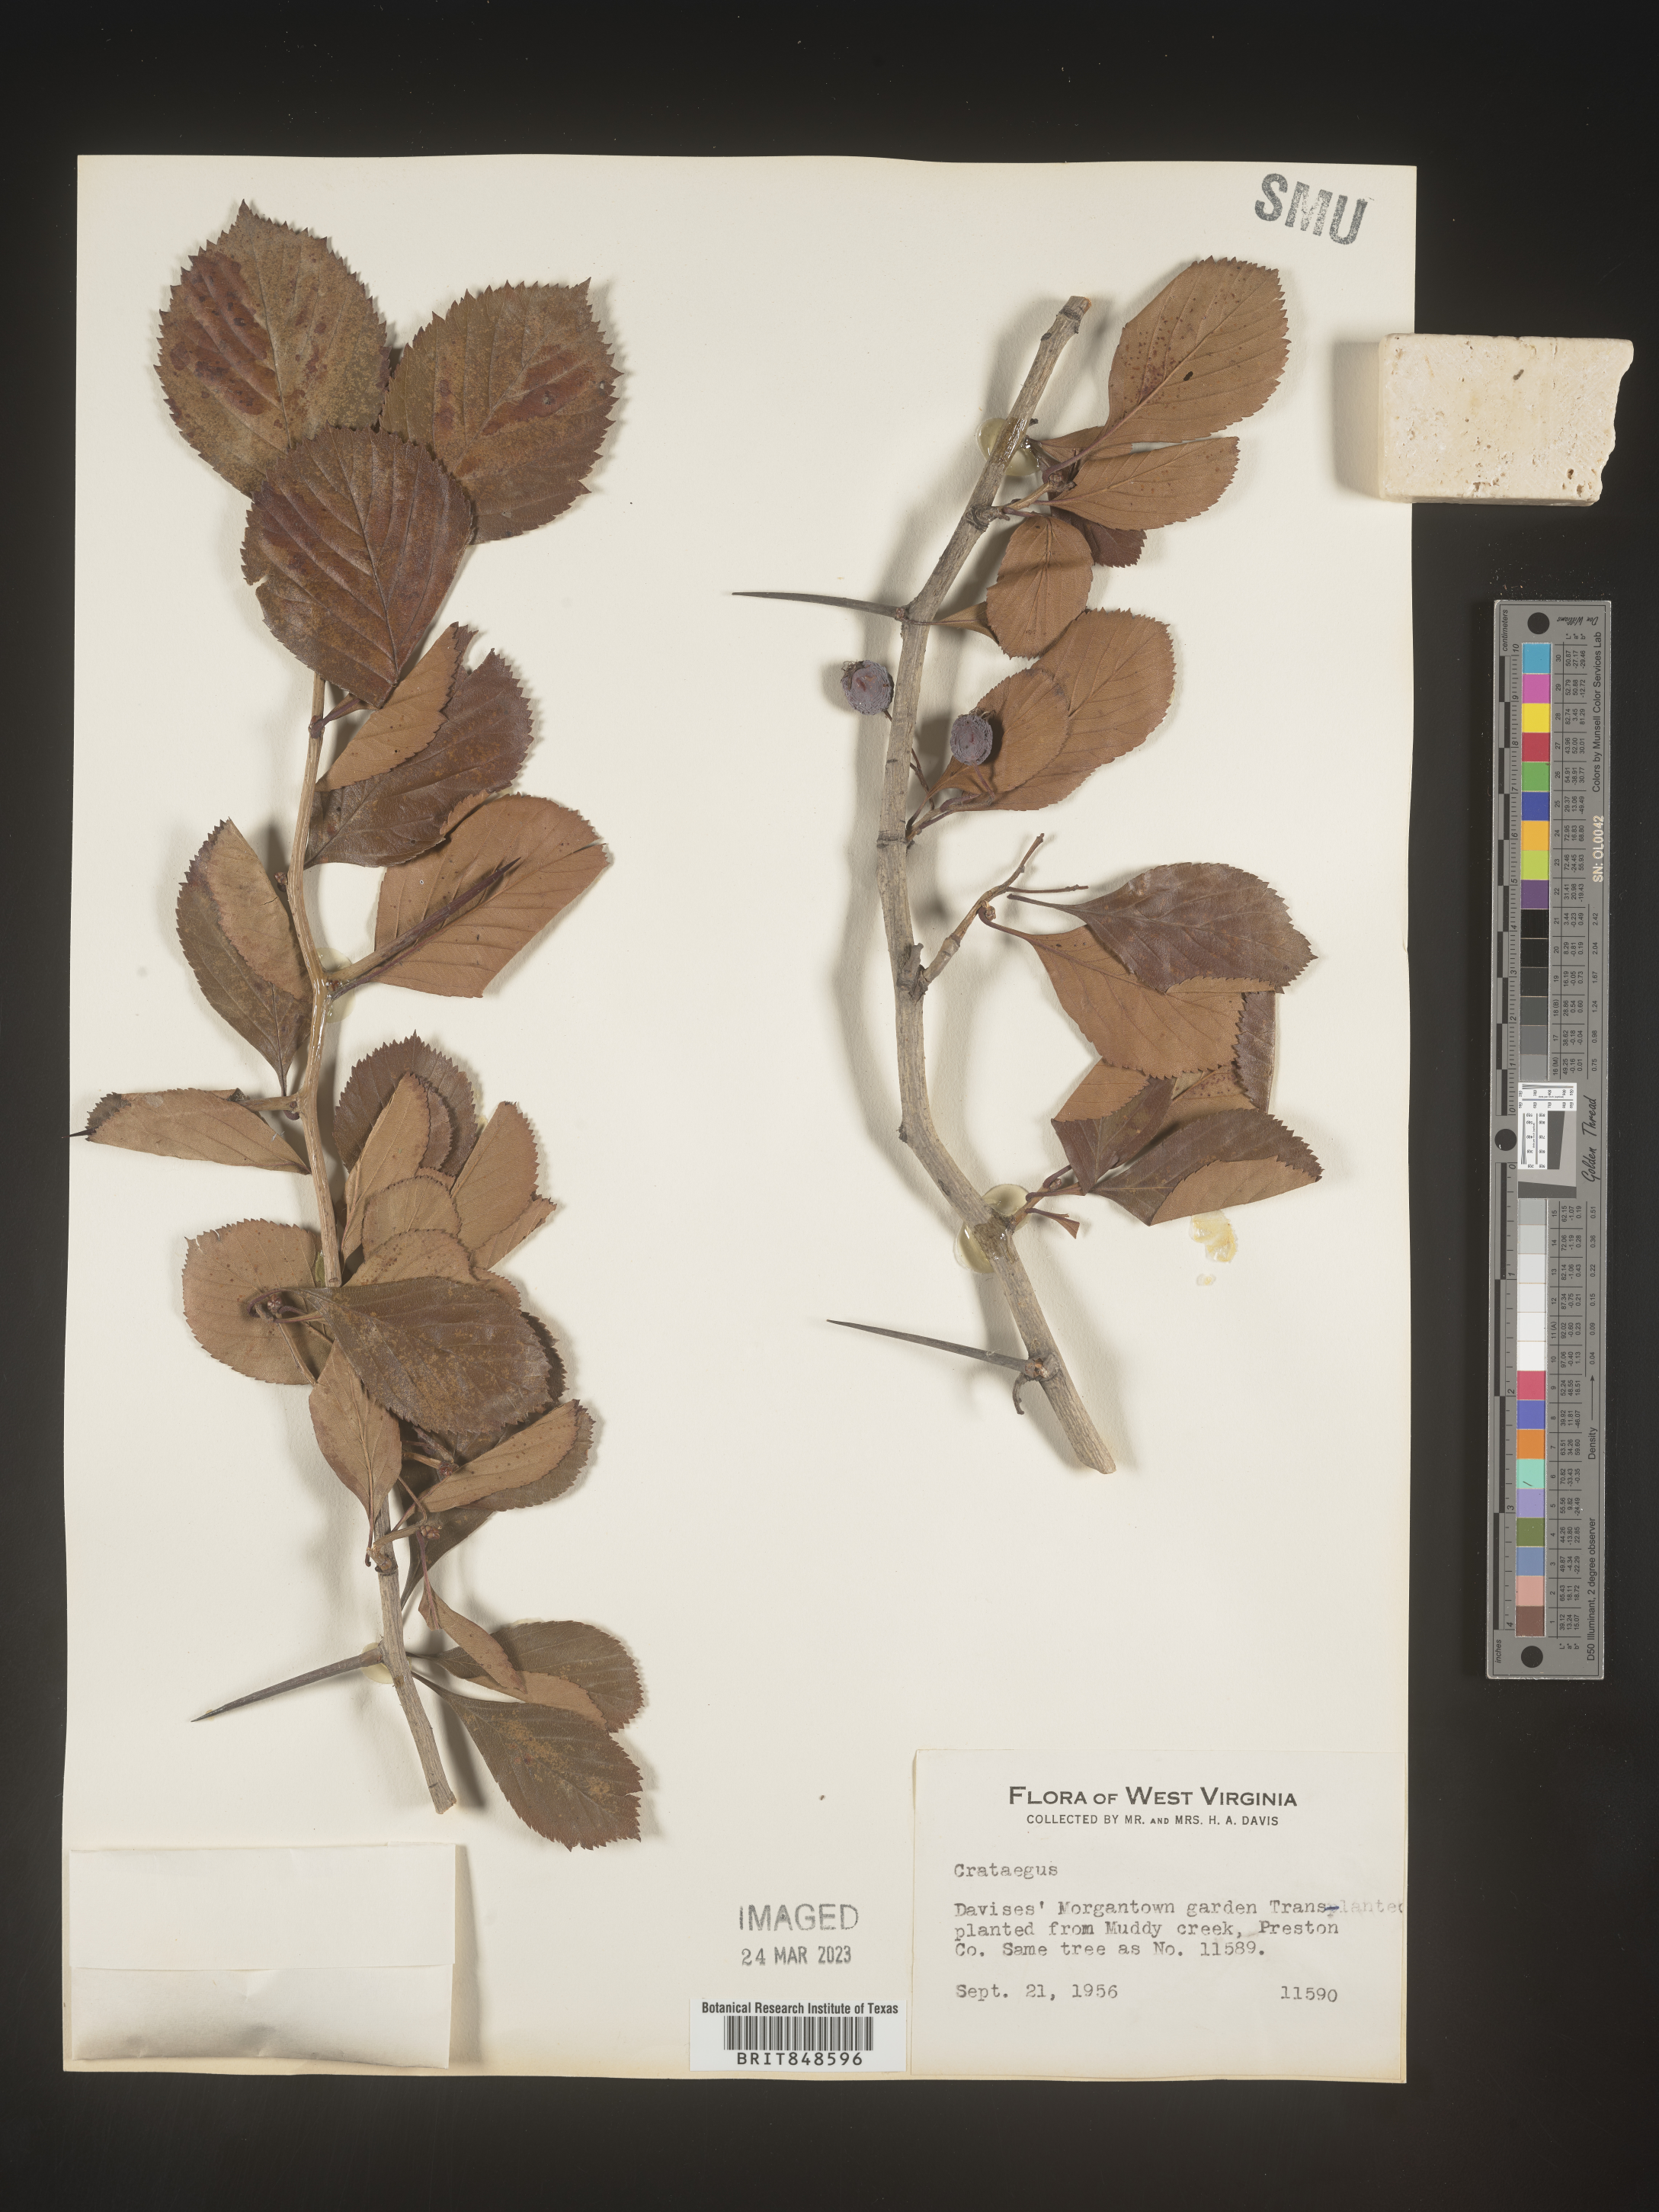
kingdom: Plantae
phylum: Tracheophyta
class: Magnoliopsida
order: Rosales
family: Rosaceae
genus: Crataegus
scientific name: Crataegus
